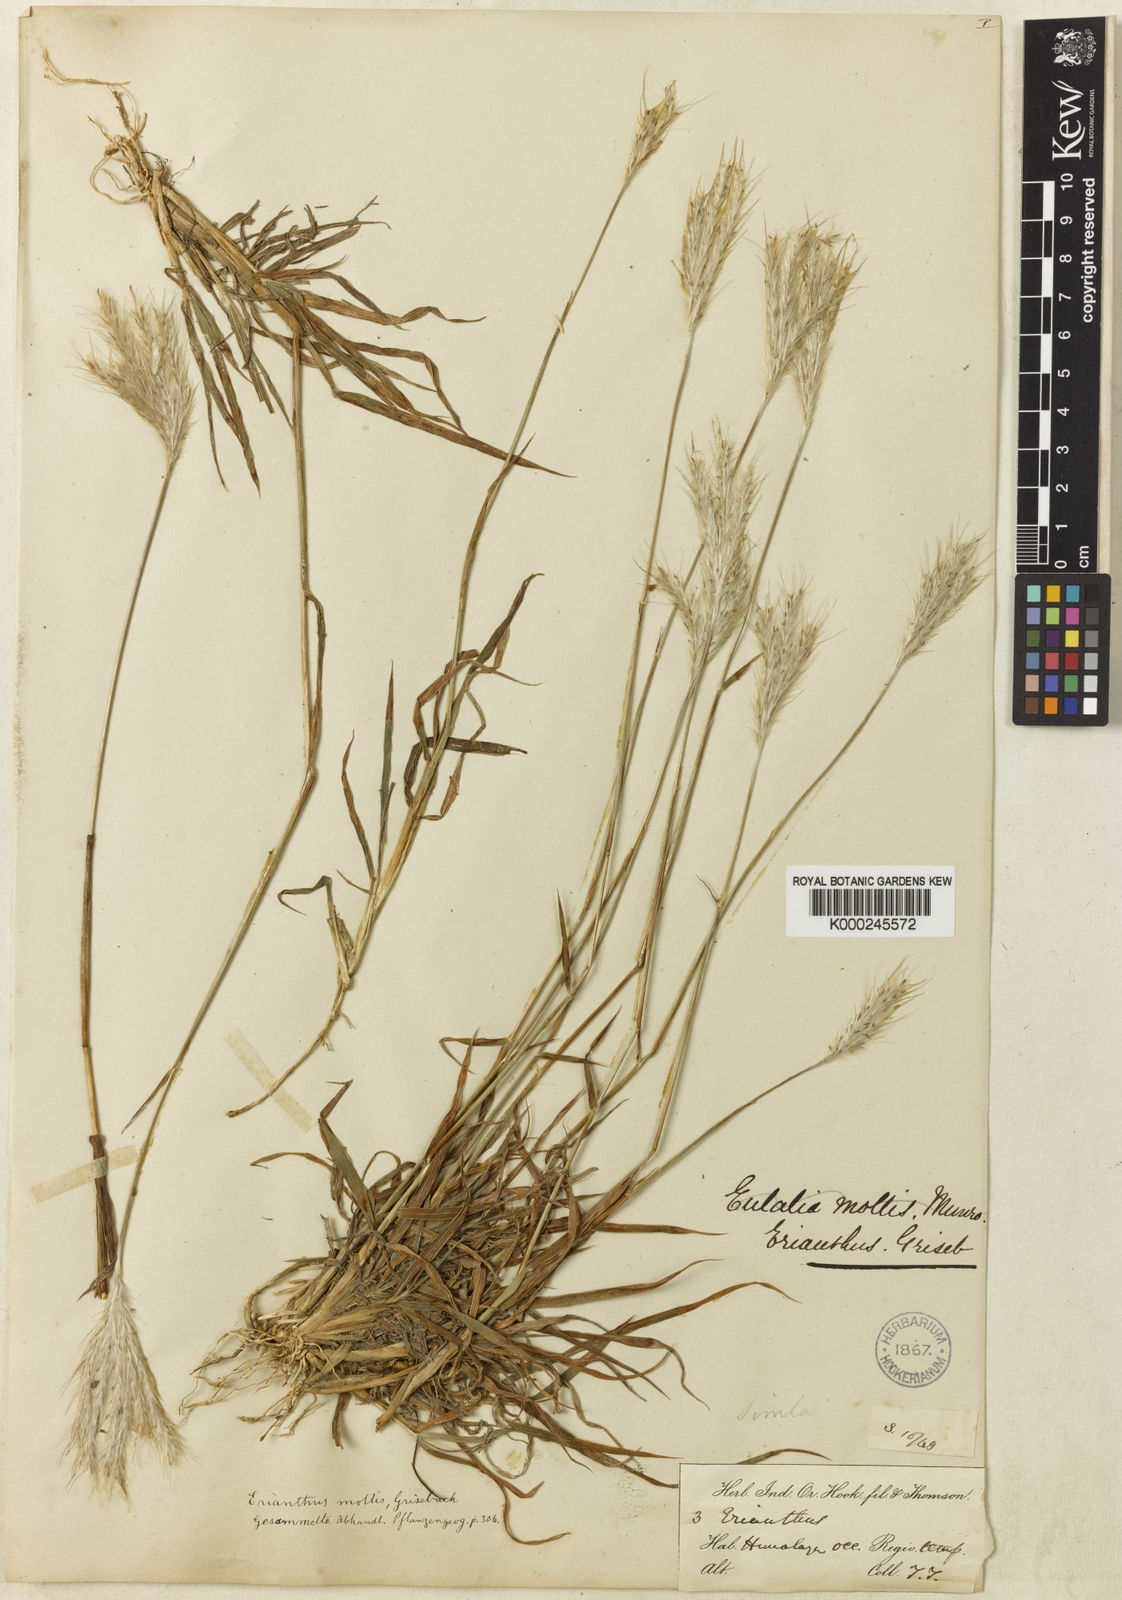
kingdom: Plantae
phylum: Tracheophyta
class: Liliopsida
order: Poales
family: Poaceae
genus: Eulalia
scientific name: Eulalia mollis
